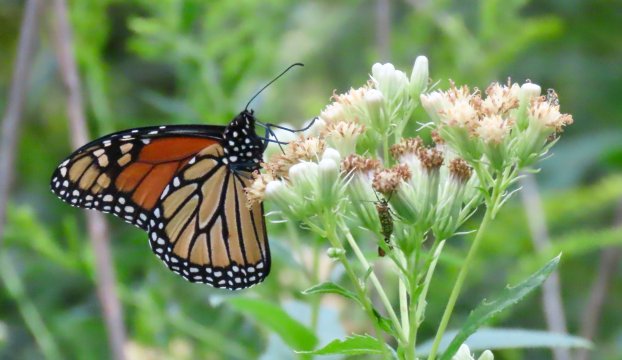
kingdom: Animalia
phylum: Arthropoda
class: Insecta
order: Lepidoptera
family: Nymphalidae
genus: Danaus
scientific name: Danaus plexippus
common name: Monarch
